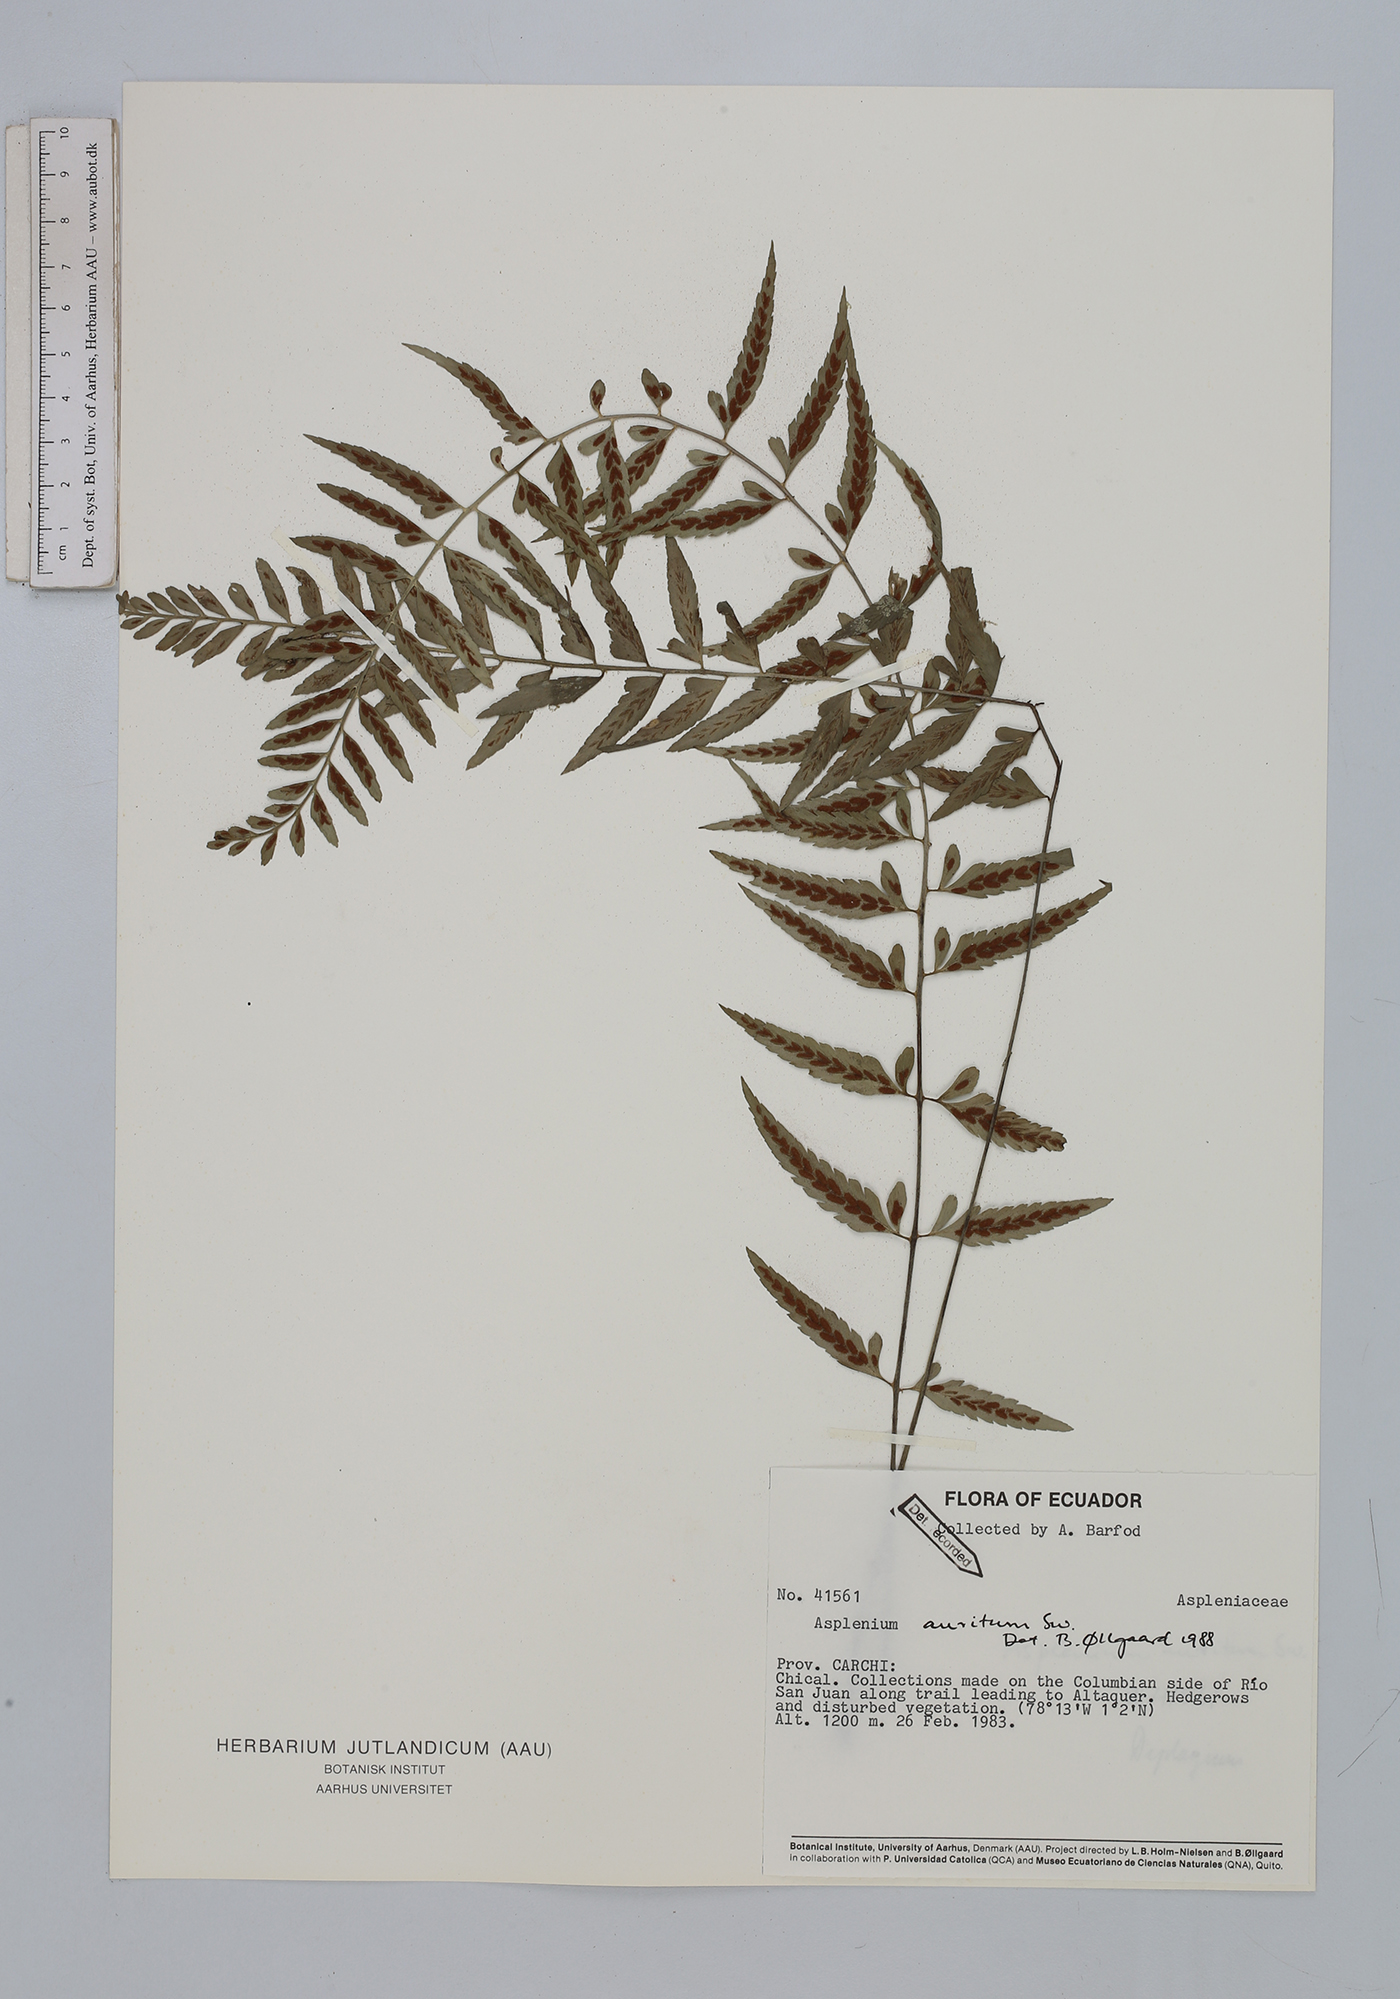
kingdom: Plantae
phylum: Tracheophyta
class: Polypodiopsida
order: Polypodiales
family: Aspleniaceae
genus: Asplenium
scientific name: Asplenium auritum
